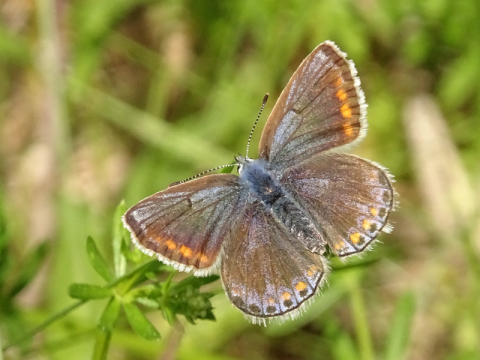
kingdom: Animalia
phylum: Arthropoda
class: Insecta
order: Lepidoptera
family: Lycaenidae
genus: Polyommatus
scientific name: Polyommatus icarus
